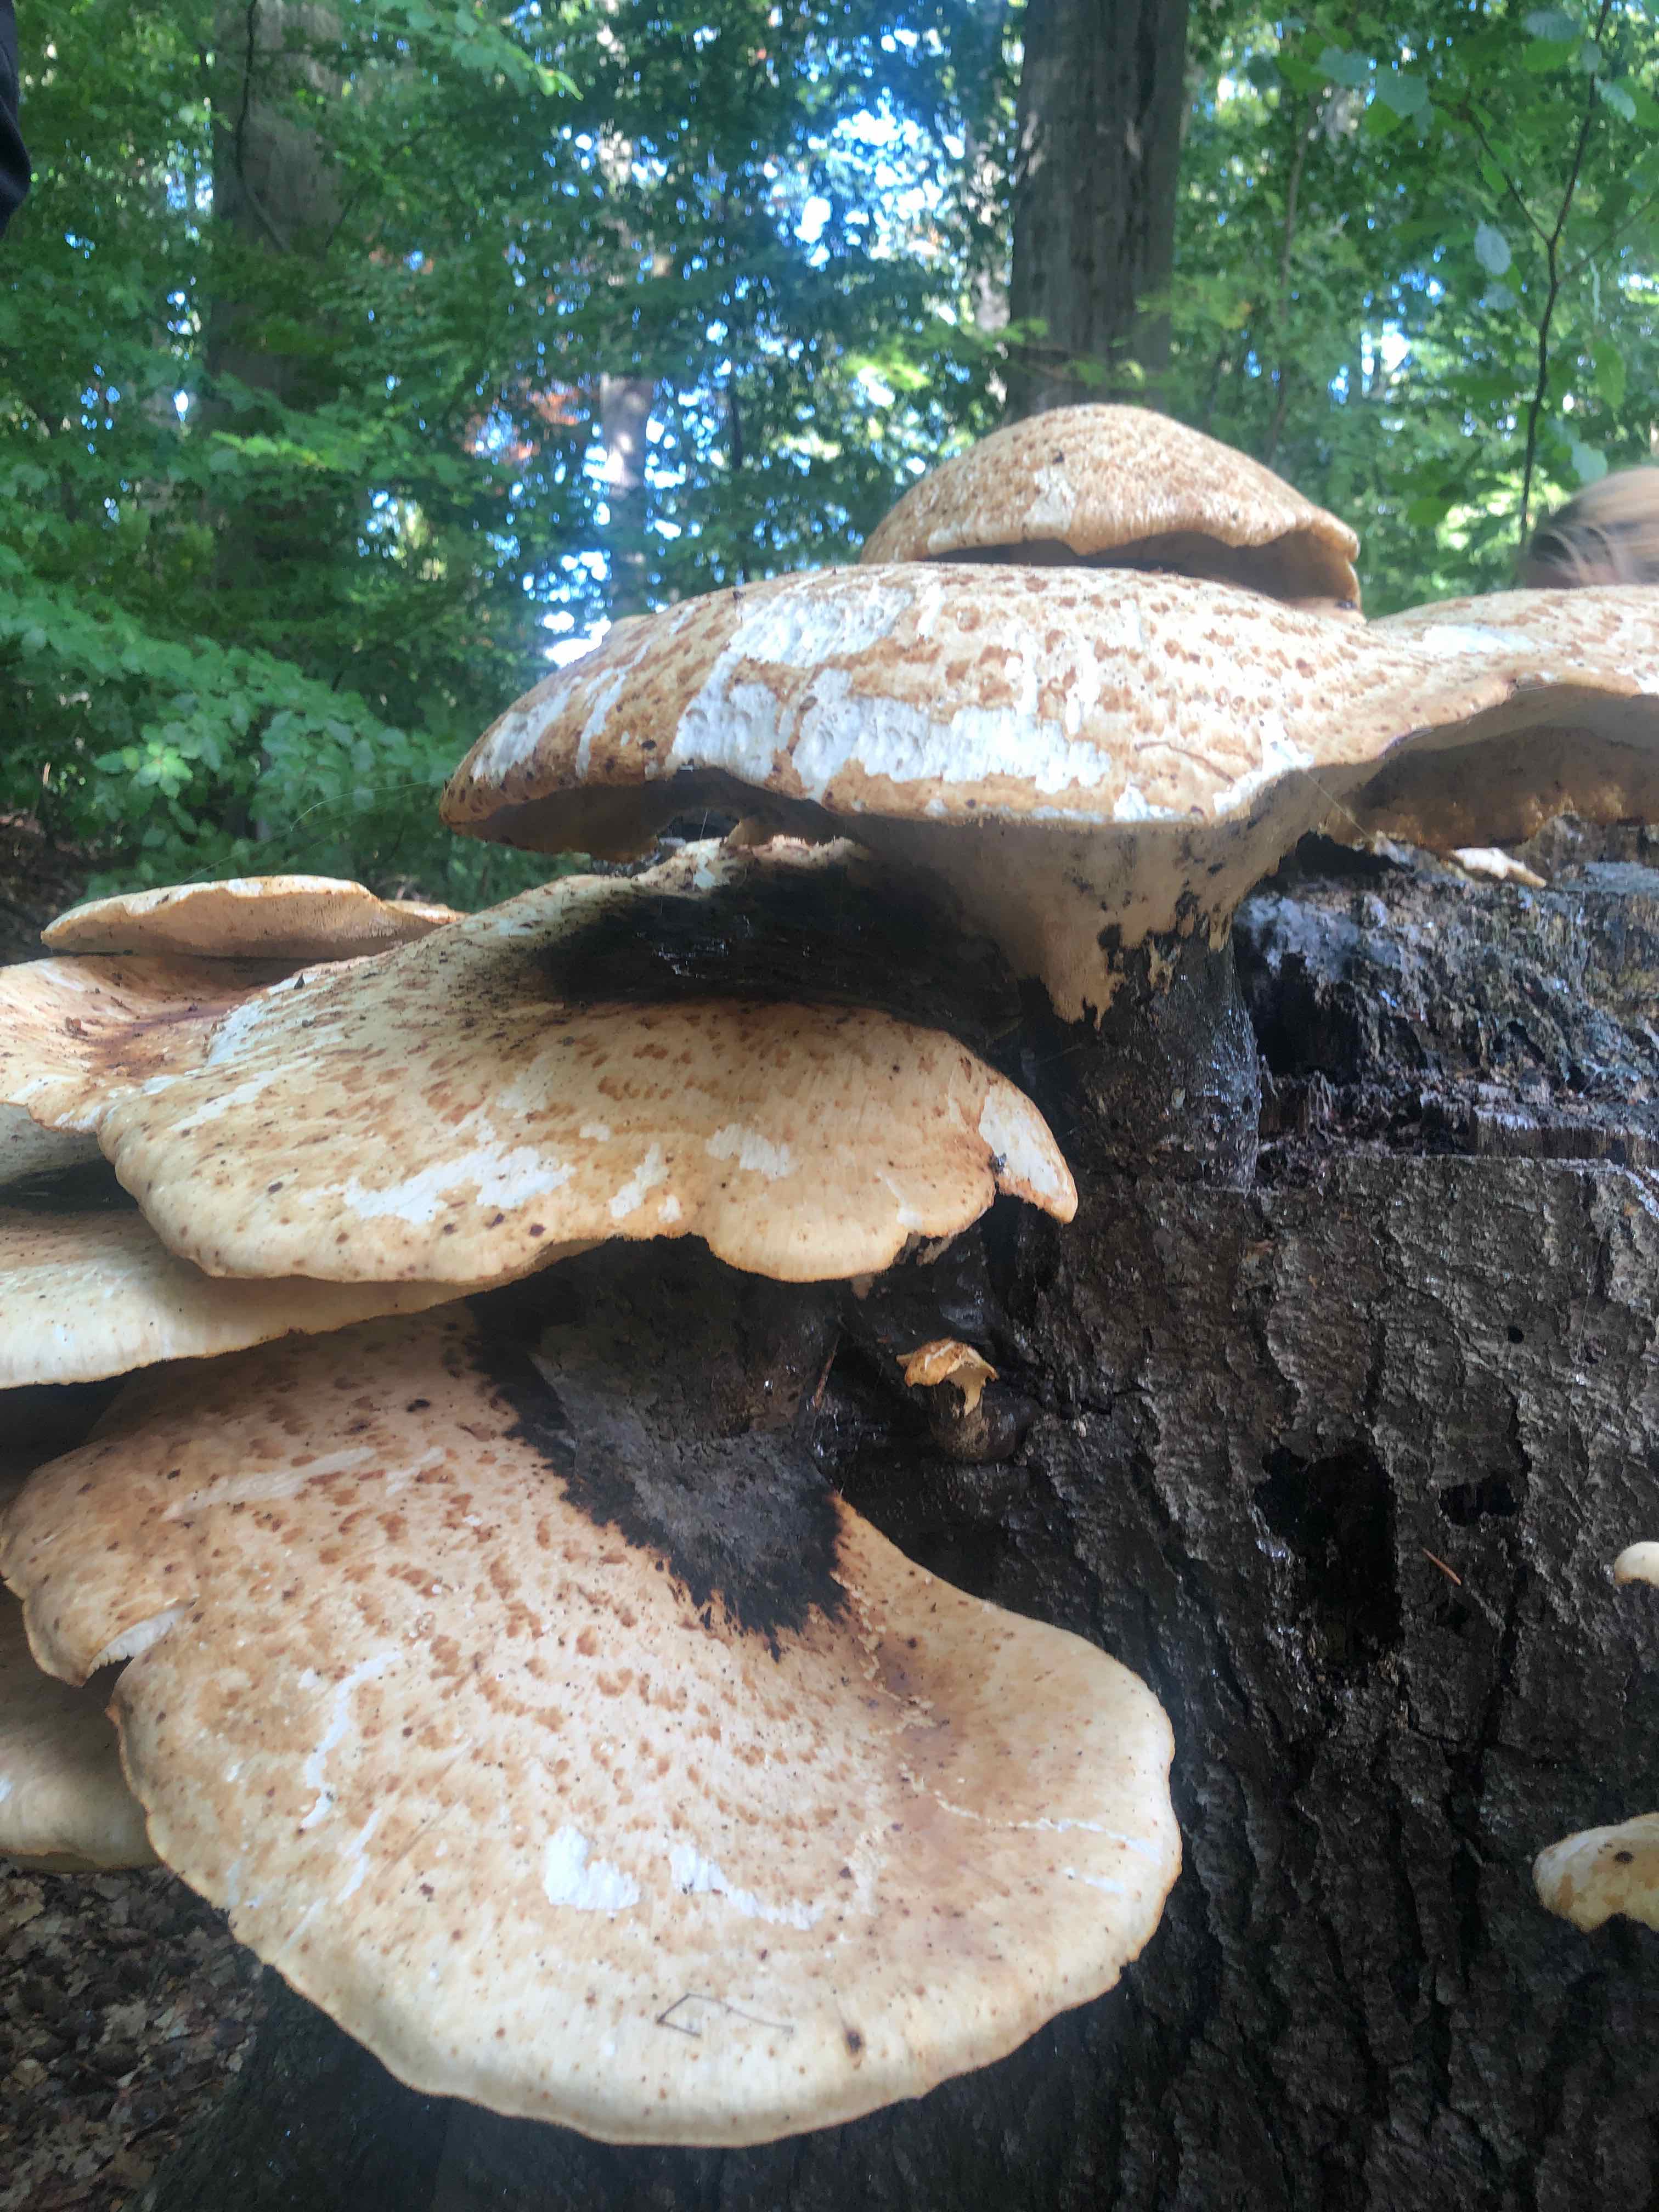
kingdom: Fungi
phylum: Basidiomycota
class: Agaricomycetes
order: Polyporales
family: Polyporaceae
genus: Cerioporus
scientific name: Cerioporus squamosus
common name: skællet stilkporesvamp
